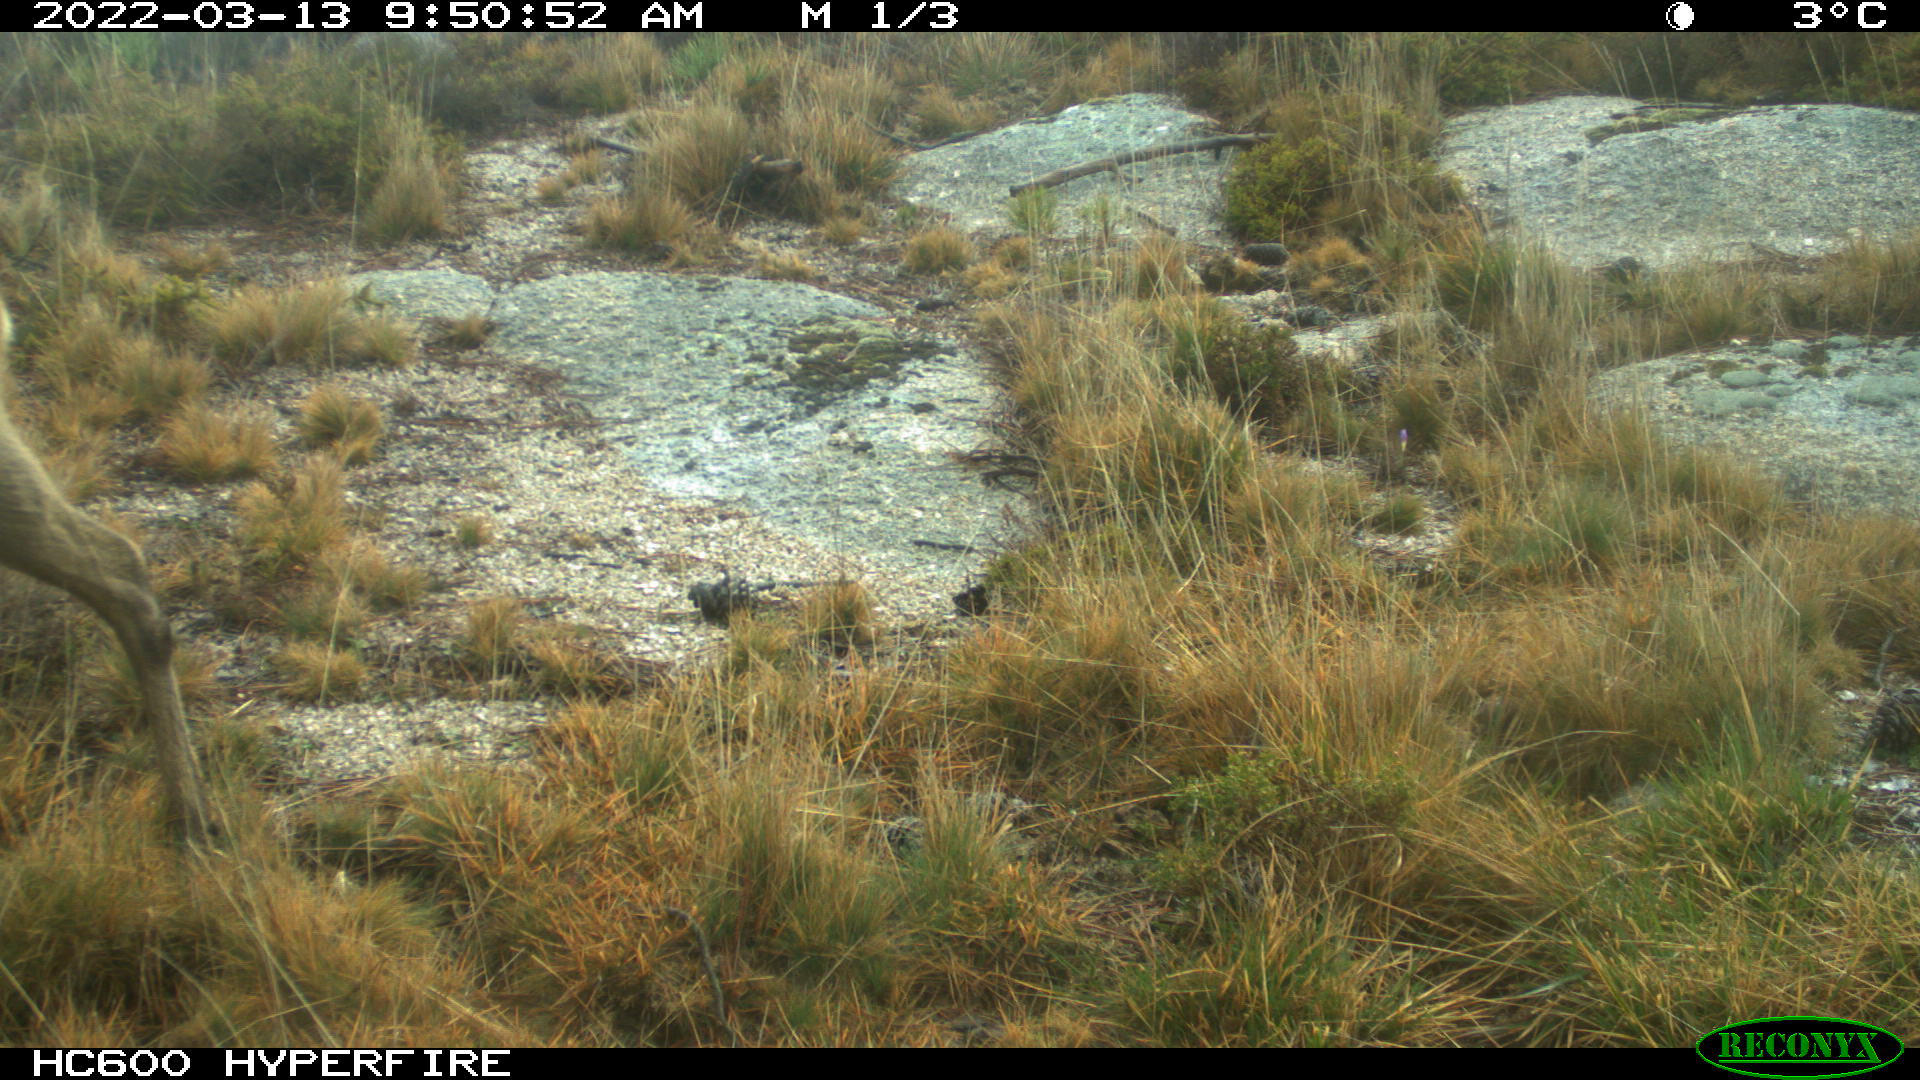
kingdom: Animalia
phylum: Chordata
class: Mammalia
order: Artiodactyla
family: Cervidae
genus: Capreolus
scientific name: Capreolus capreolus
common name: Western roe deer
